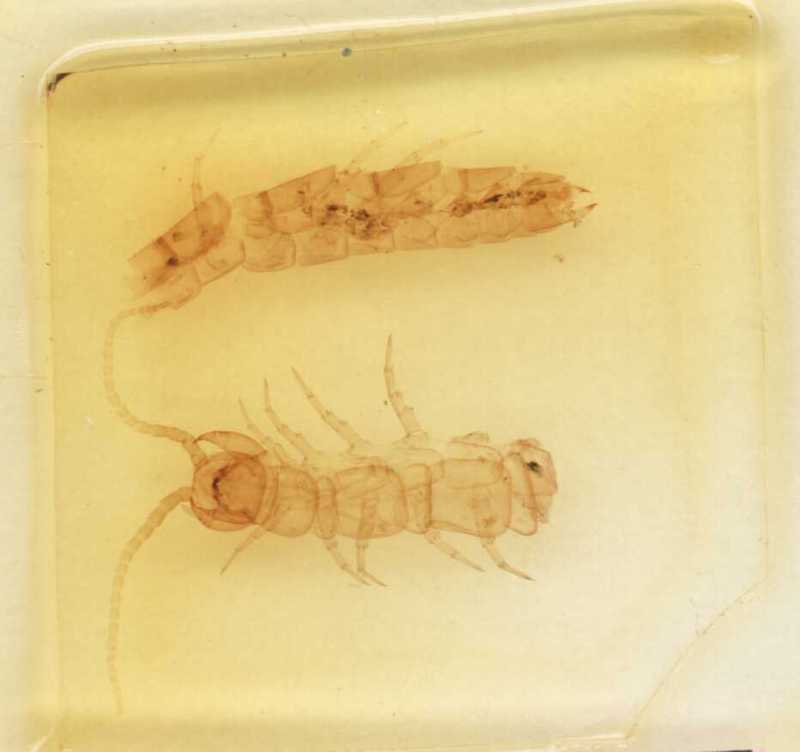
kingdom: Animalia
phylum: Arthropoda
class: Chilopoda
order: Lithobiomorpha
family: Lithobiidae
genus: Hessebius
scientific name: Hessebius barbipes
